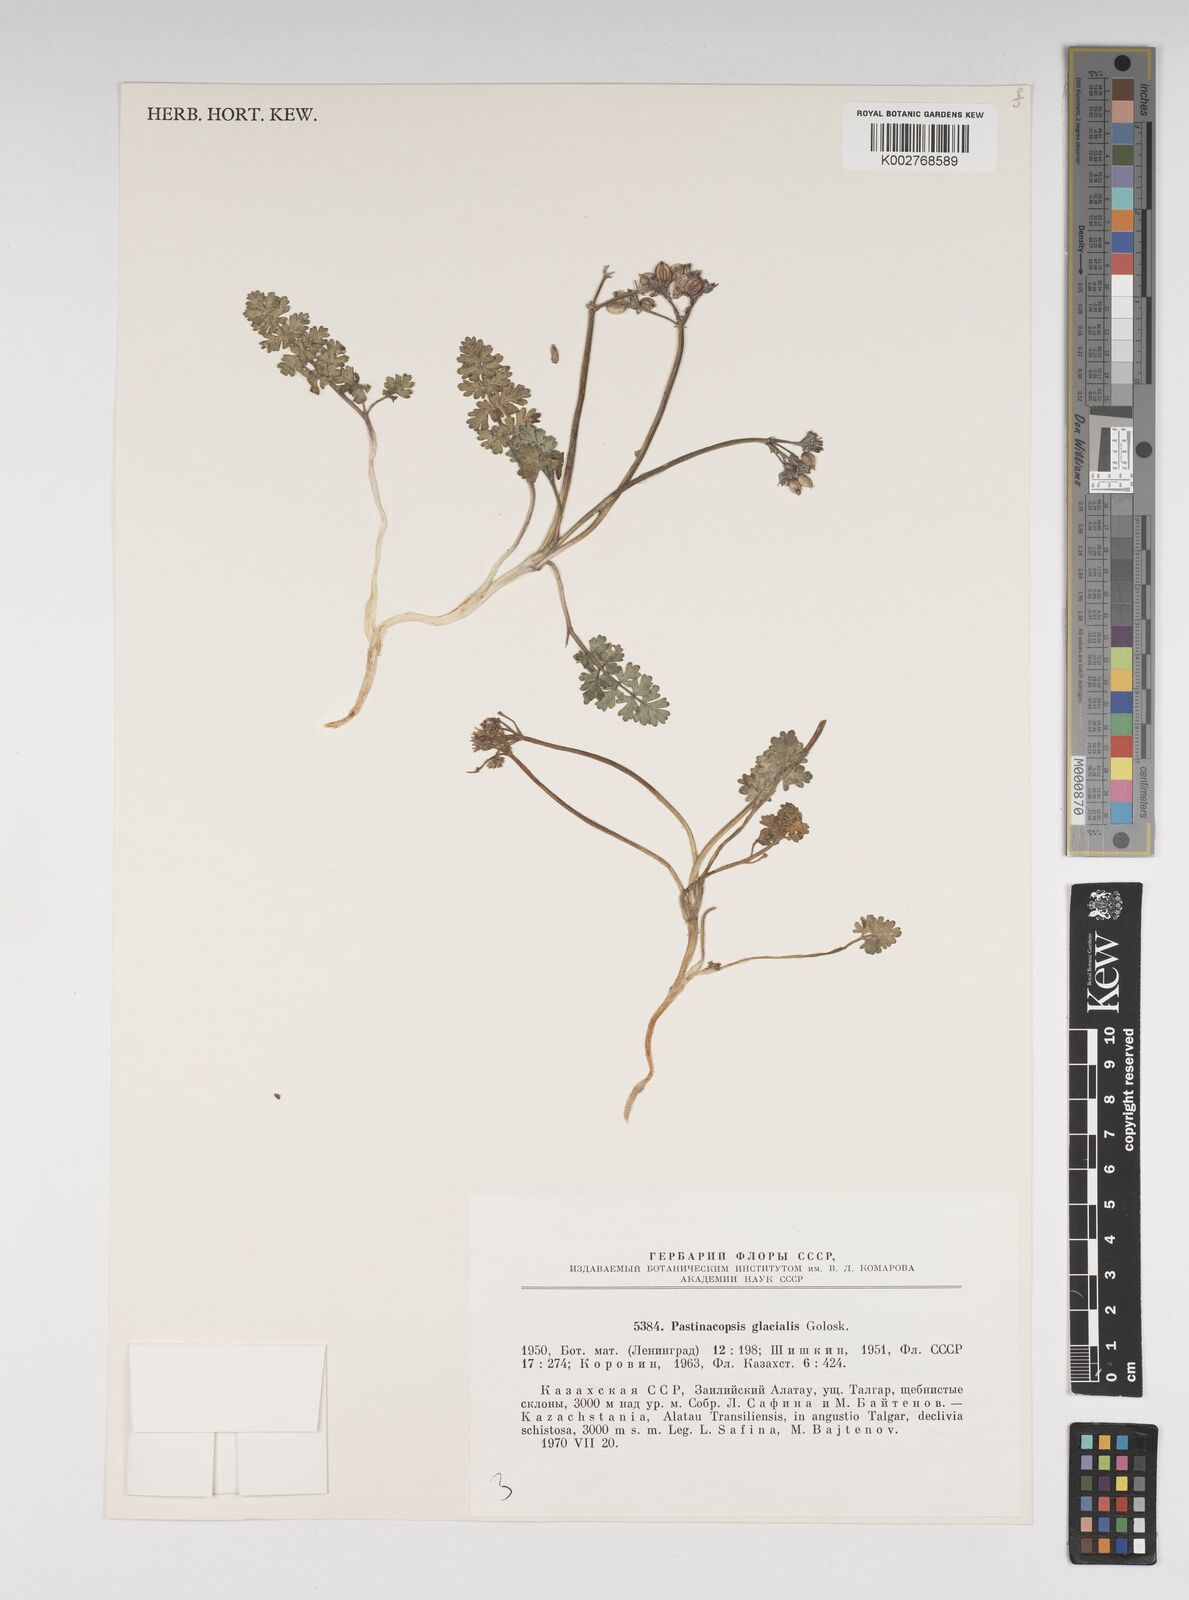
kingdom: Plantae
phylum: Tracheophyta
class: Magnoliopsida
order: Apiales
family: Apiaceae
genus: Pastinacopsis
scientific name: Pastinacopsis glacialis
